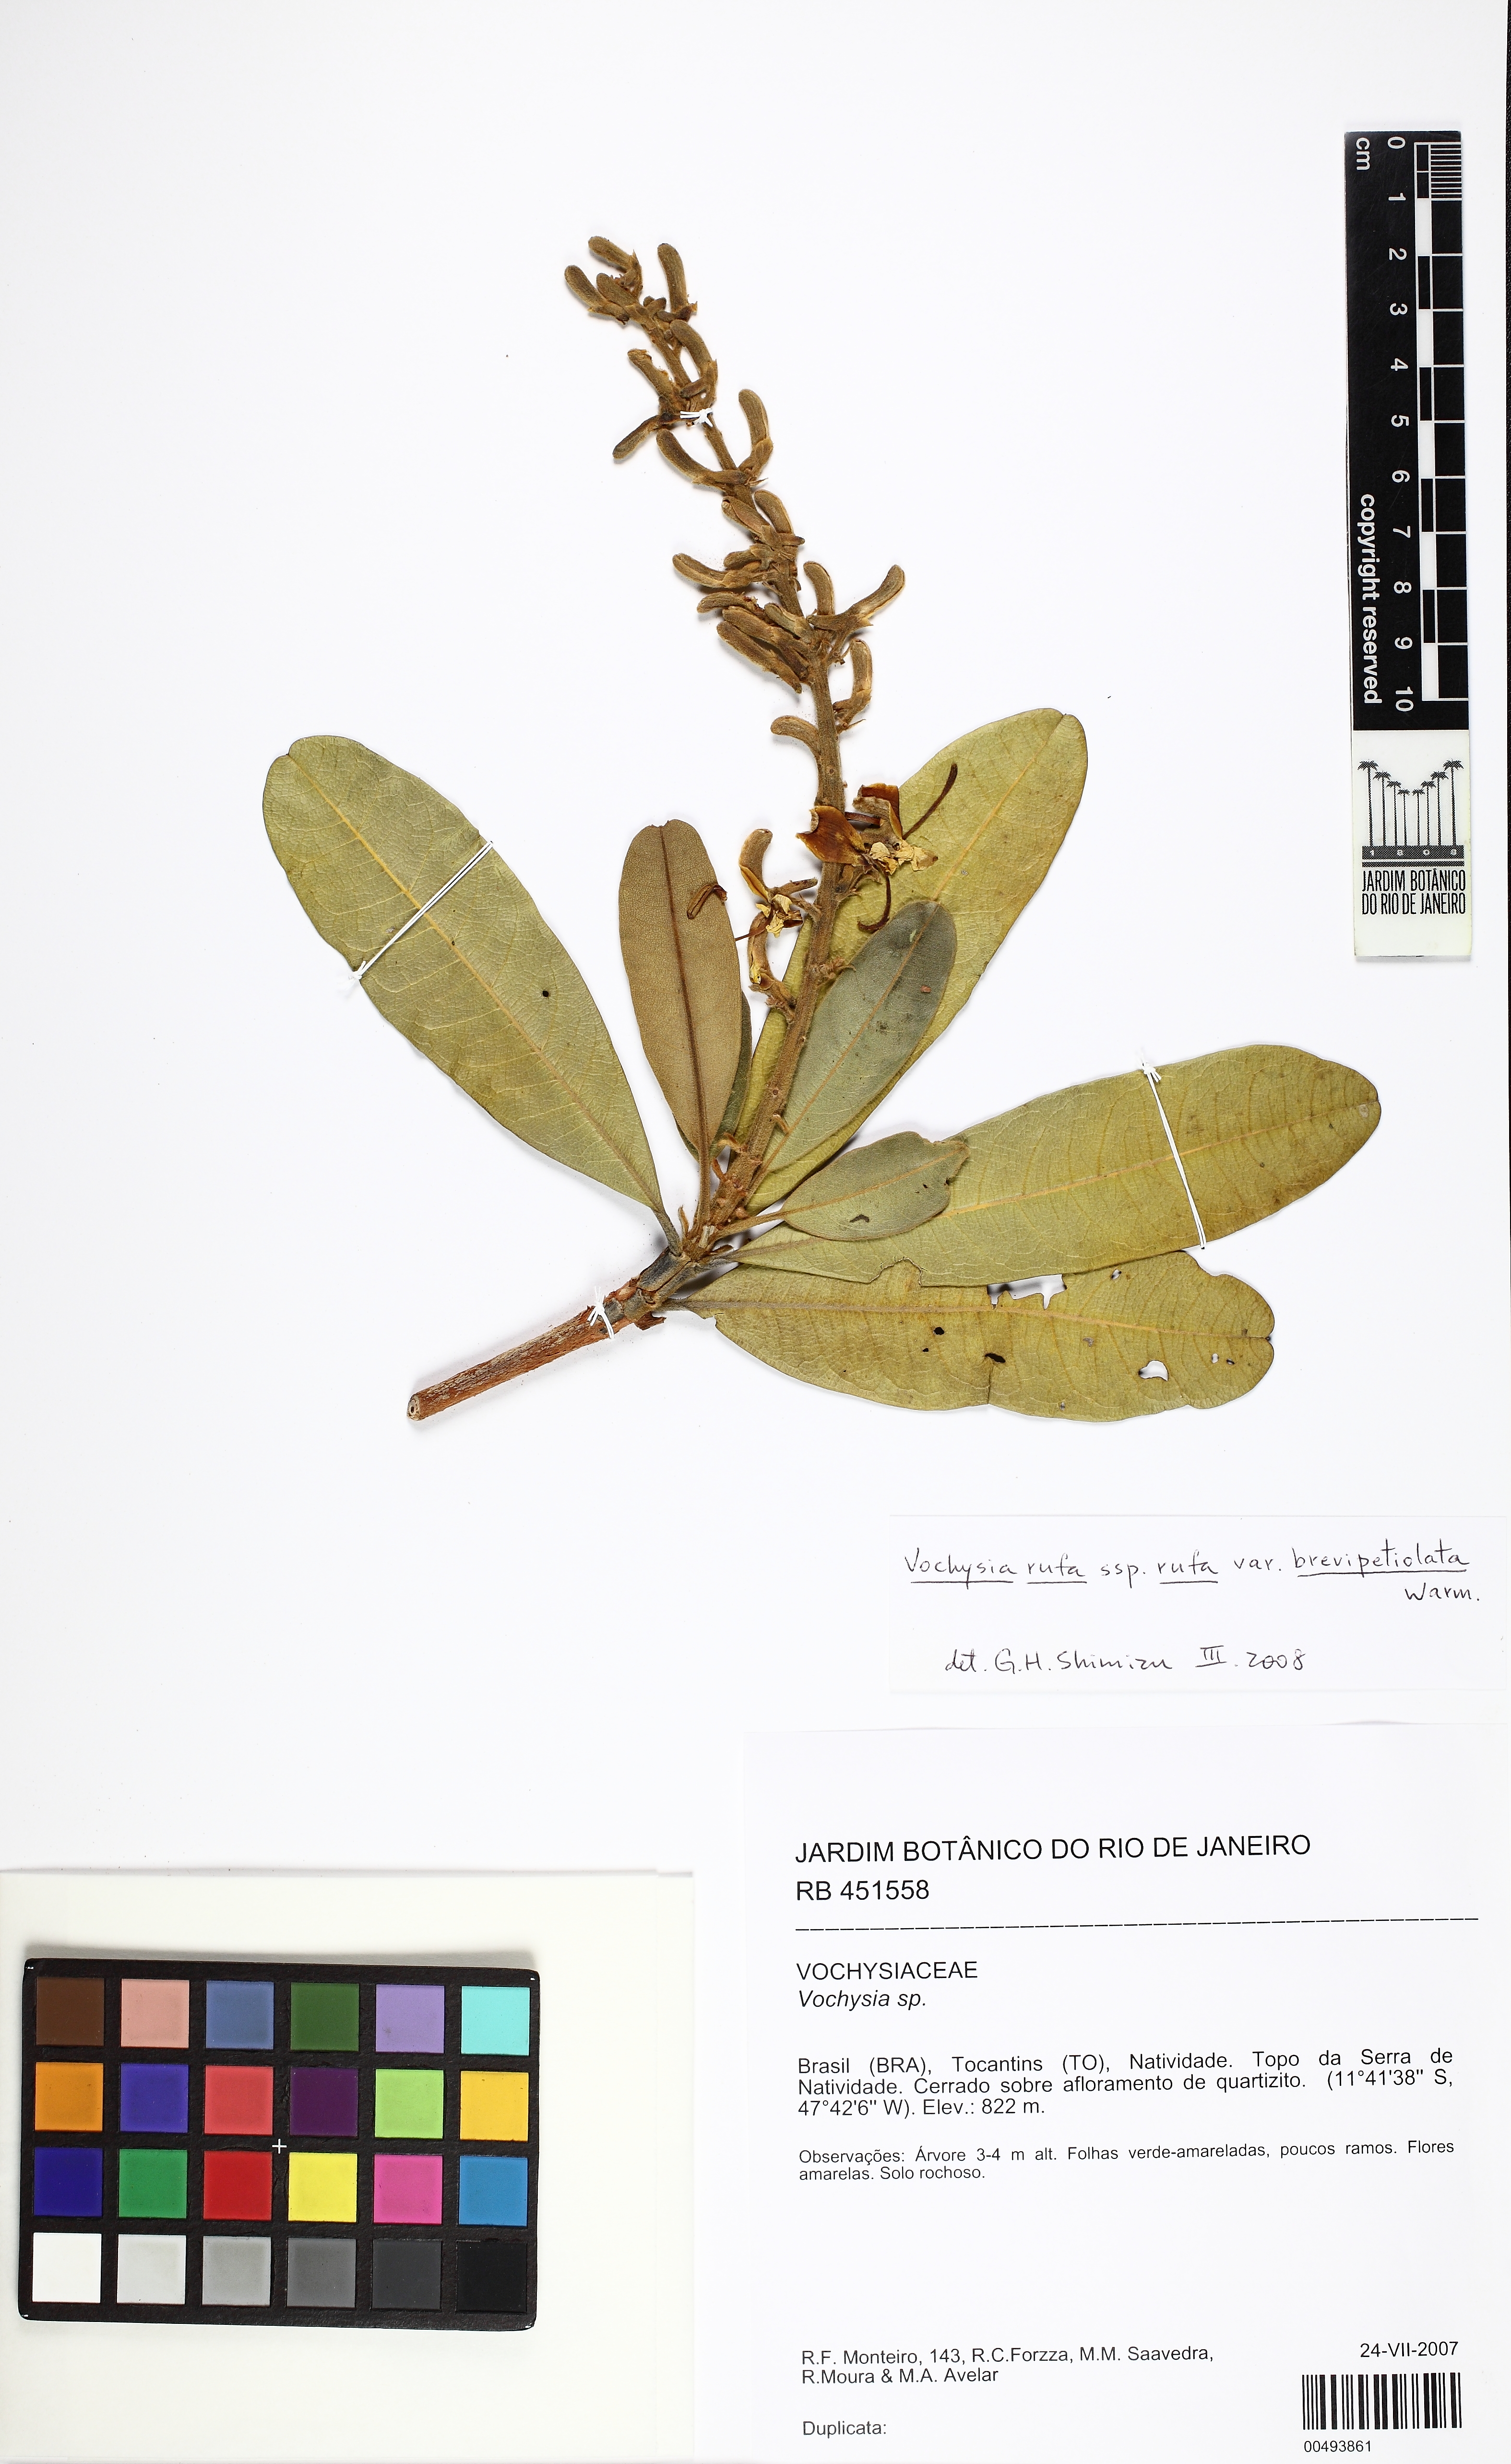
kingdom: Plantae
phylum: Tracheophyta
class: Magnoliopsida
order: Myrtales
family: Vochysiaceae
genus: Vochysia
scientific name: Vochysia rufa
